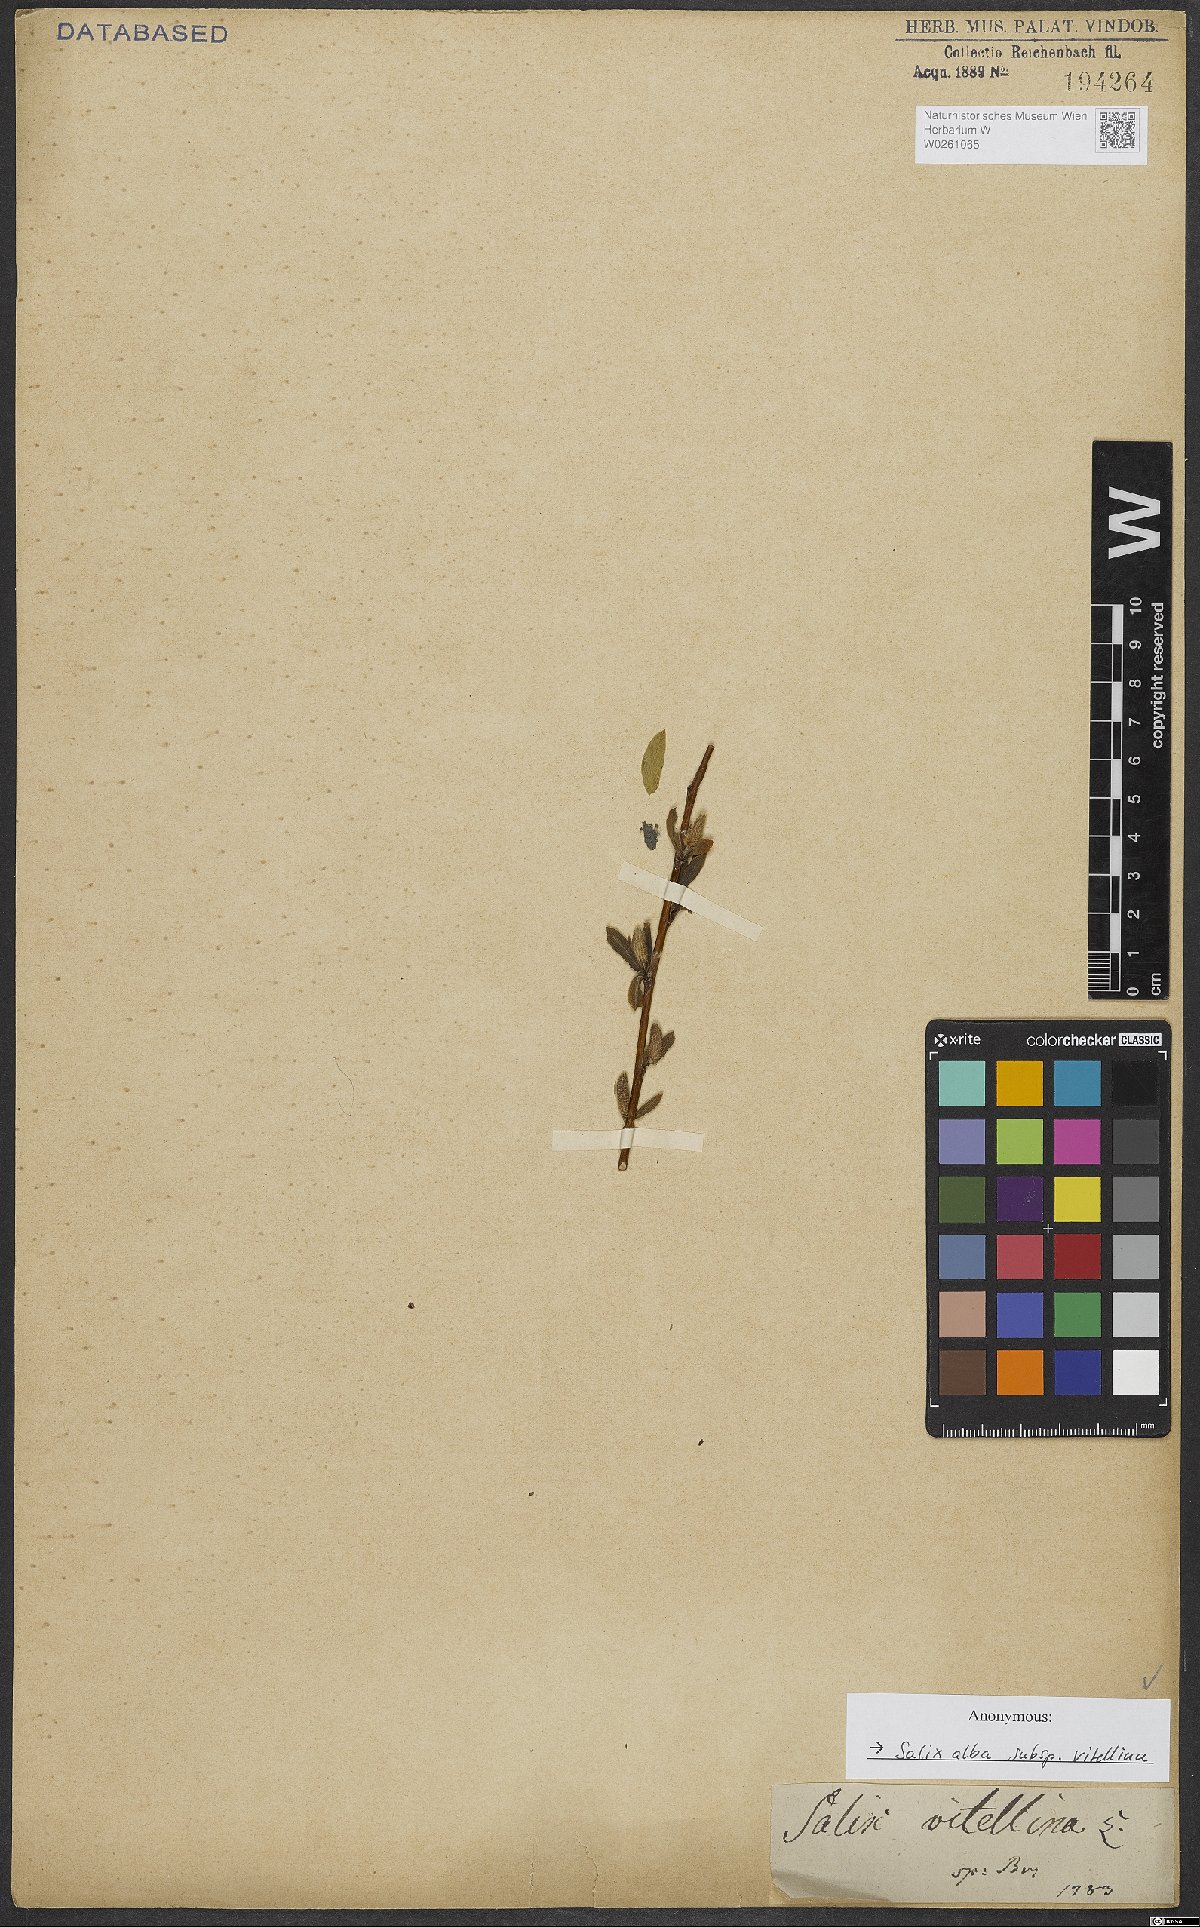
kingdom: Plantae
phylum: Tracheophyta
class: Magnoliopsida
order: Malpighiales
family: Salicaceae
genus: Salix
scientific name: Salix alba
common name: White willow
